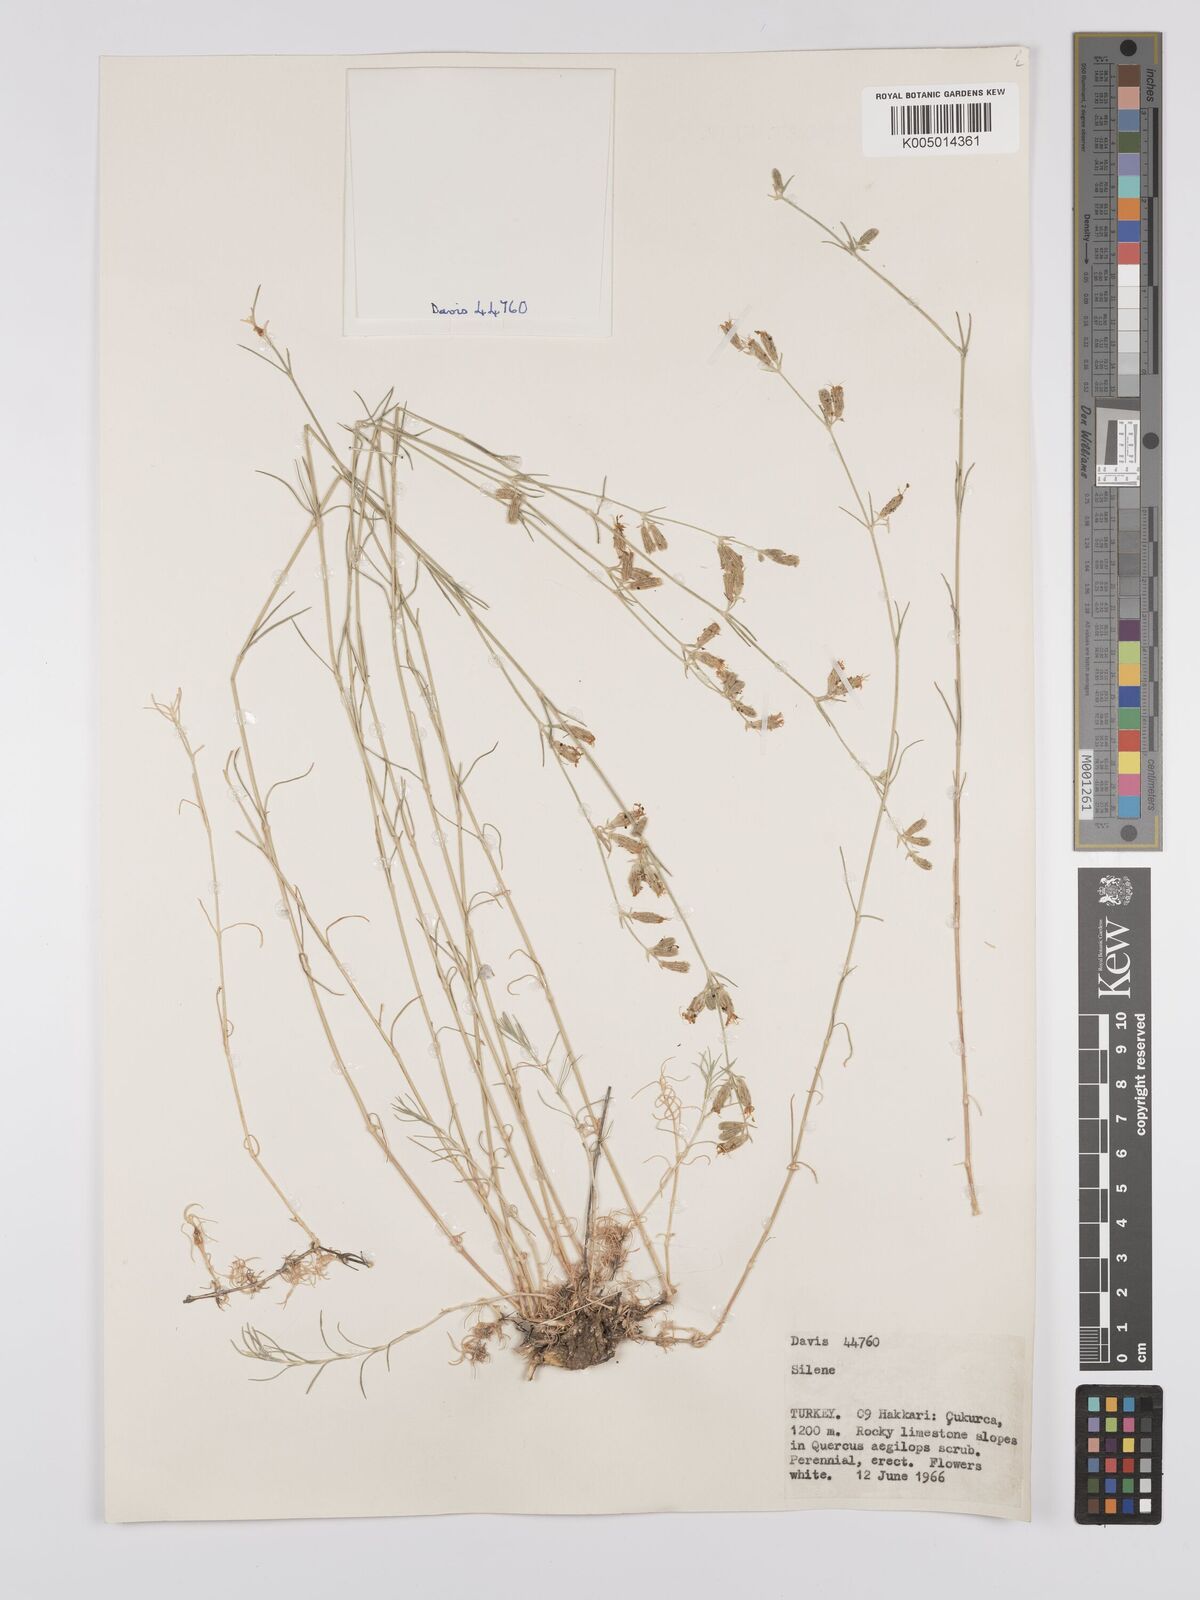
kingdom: Plantae
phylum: Tracheophyta
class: Magnoliopsida
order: Caryophyllales
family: Caryophyllaceae
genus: Silene
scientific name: Silene
